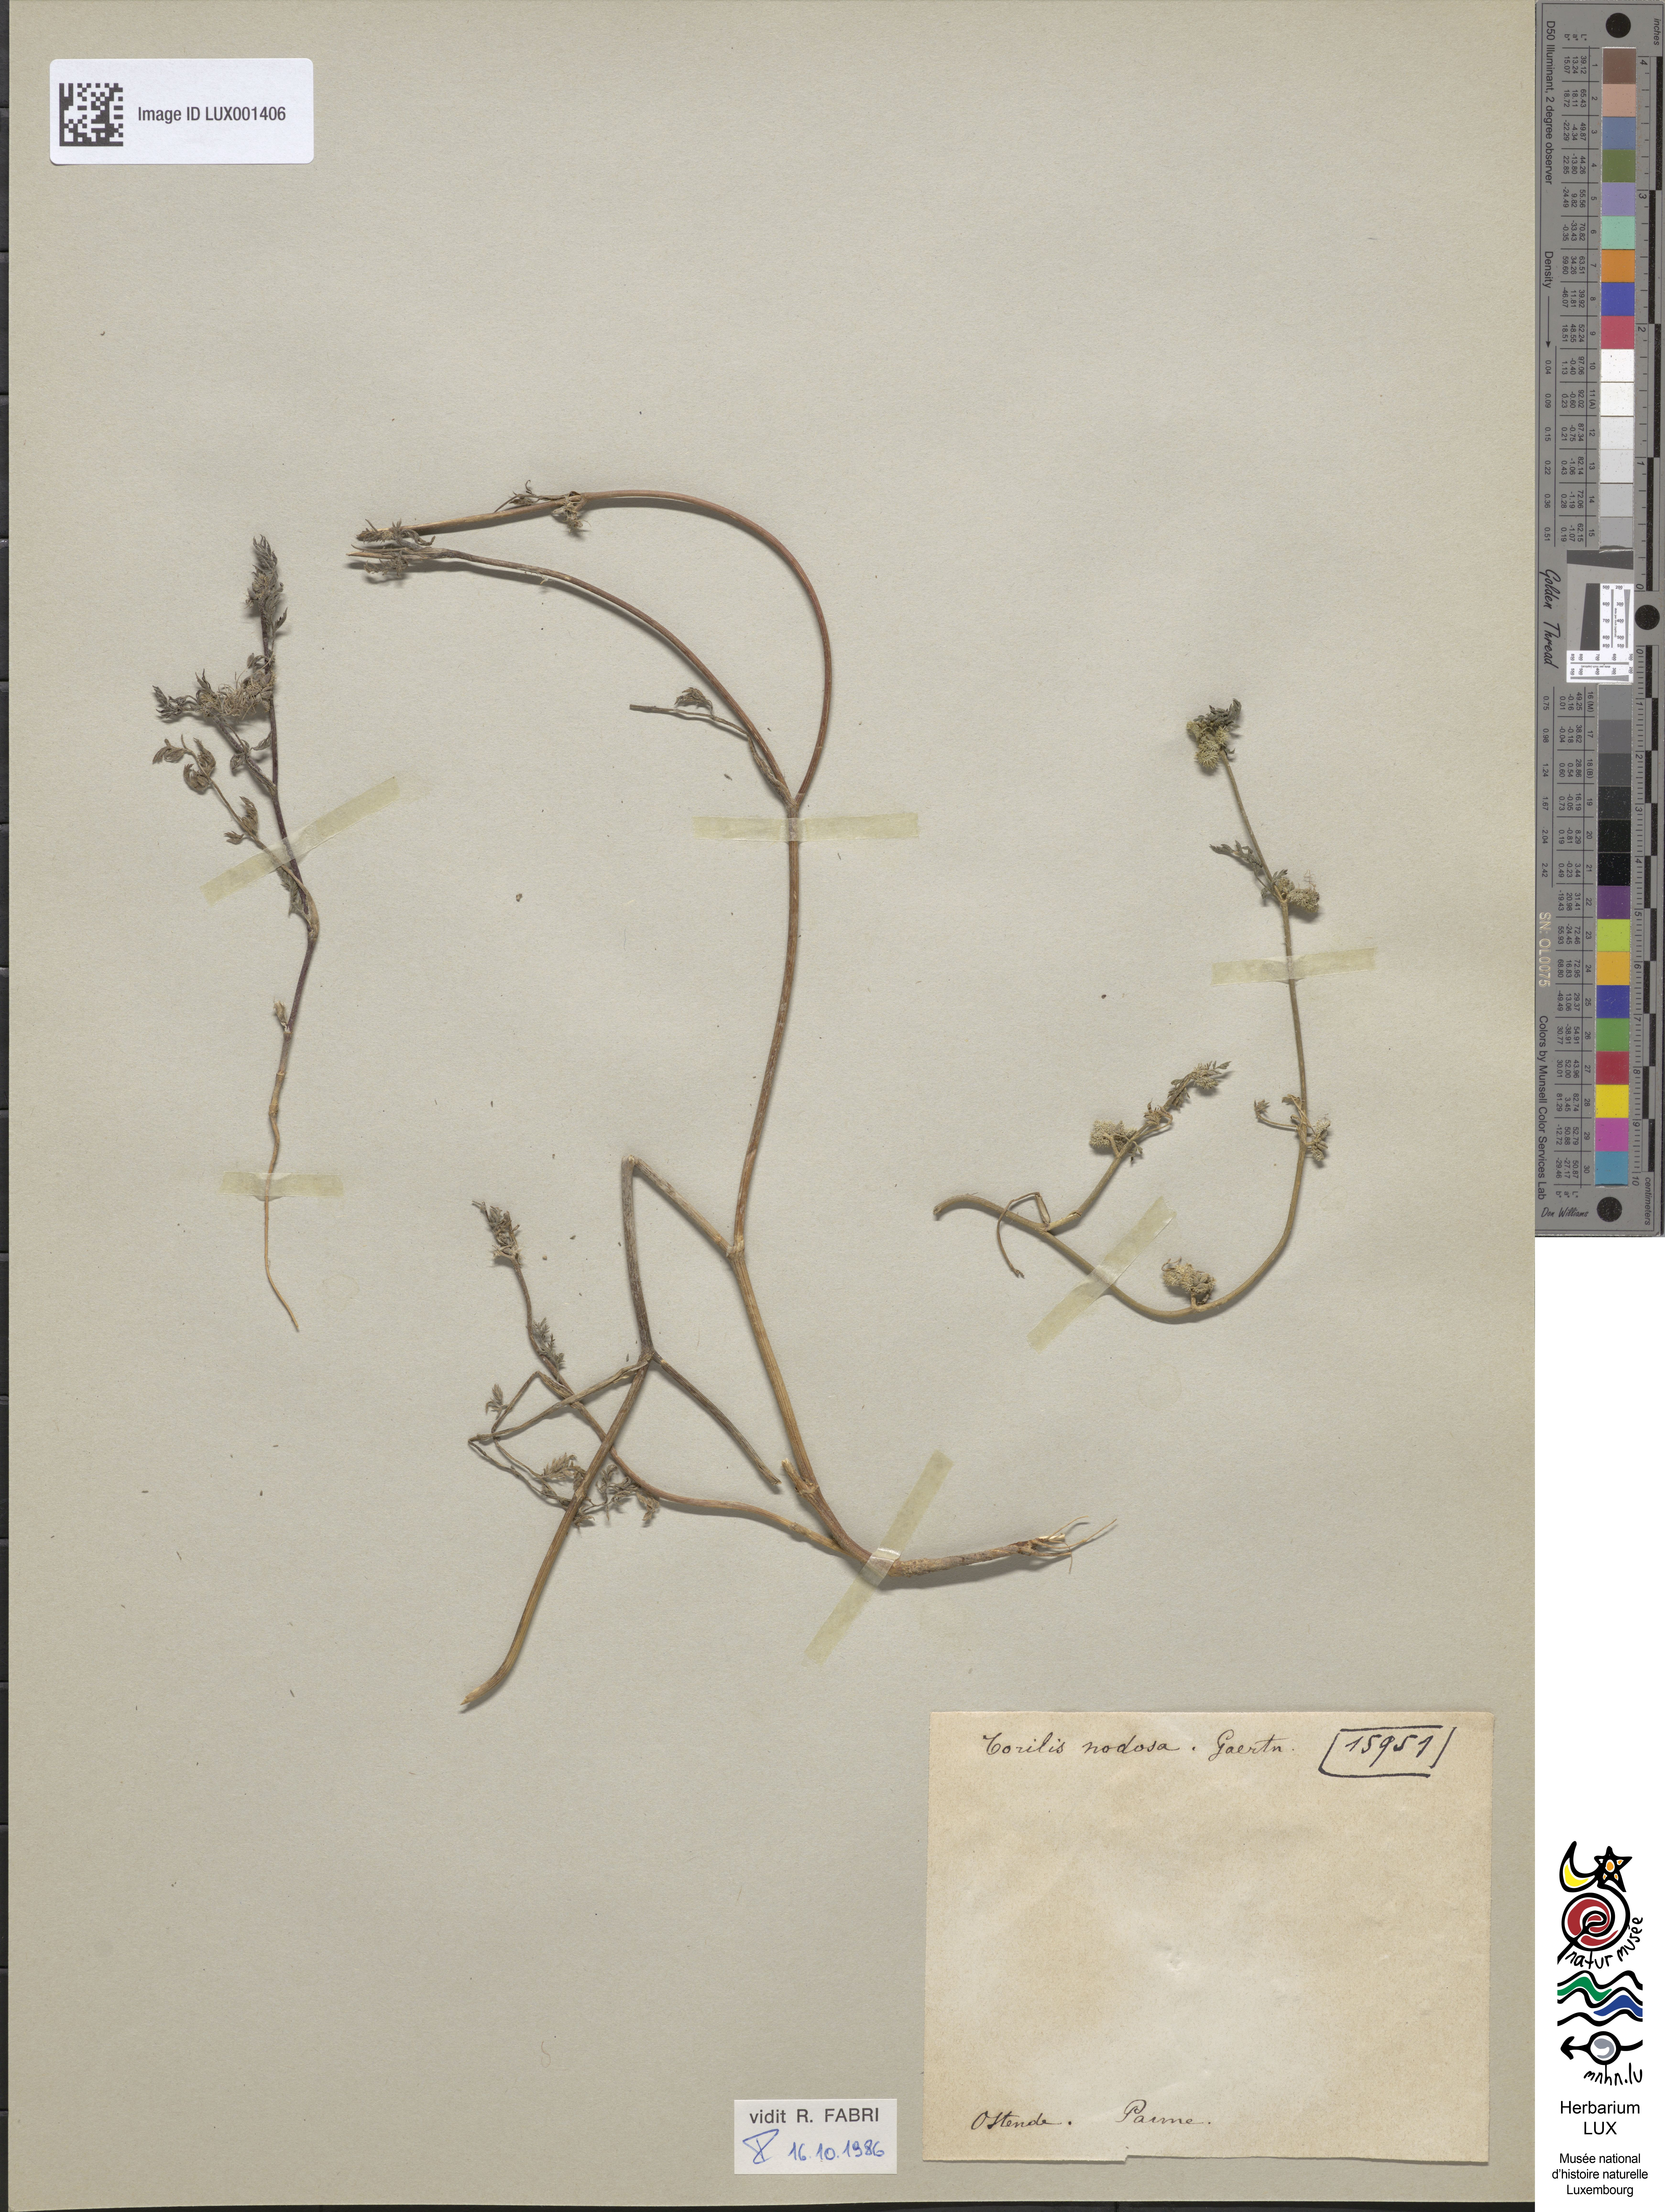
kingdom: Plantae
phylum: Tracheophyta
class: Magnoliopsida
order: Apiales
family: Apiaceae
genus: Torilis
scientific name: Torilis nodosa
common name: Knotted hedge-parsley
